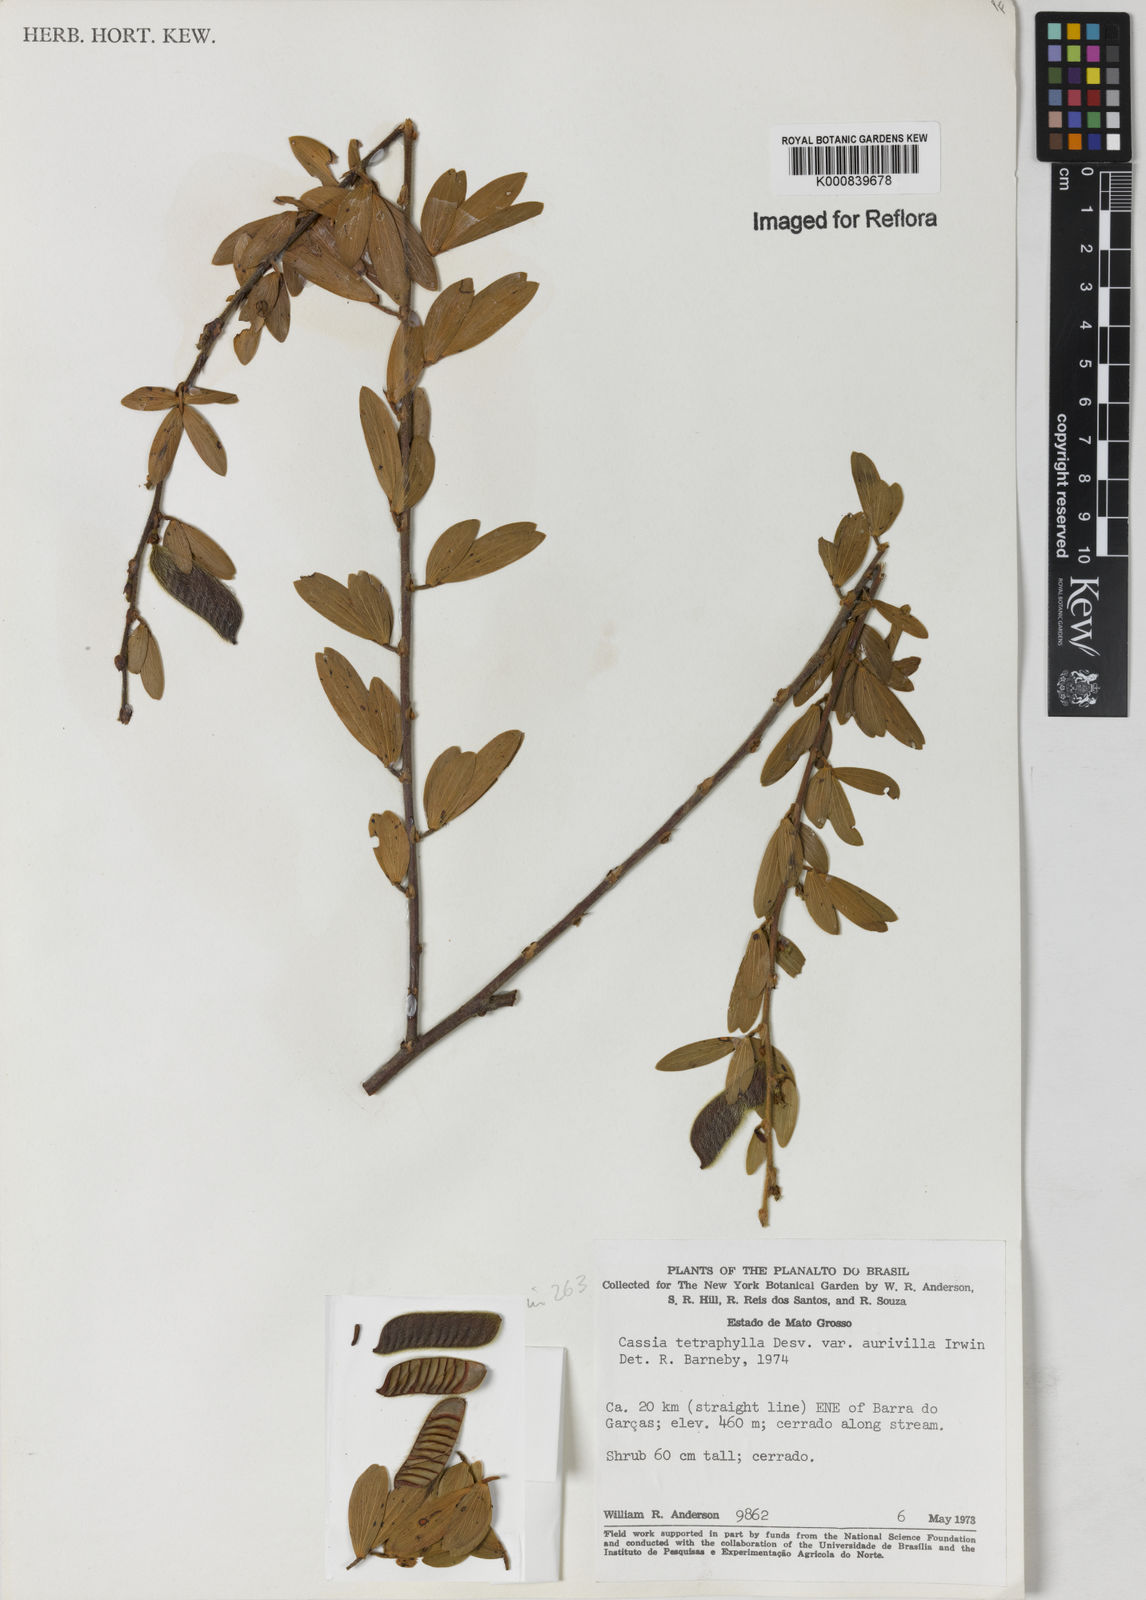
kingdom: Plantae
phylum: Tracheophyta
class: Magnoliopsida
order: Fabales
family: Fabaceae
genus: Chamaecrista
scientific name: Chamaecrista desvauxii
